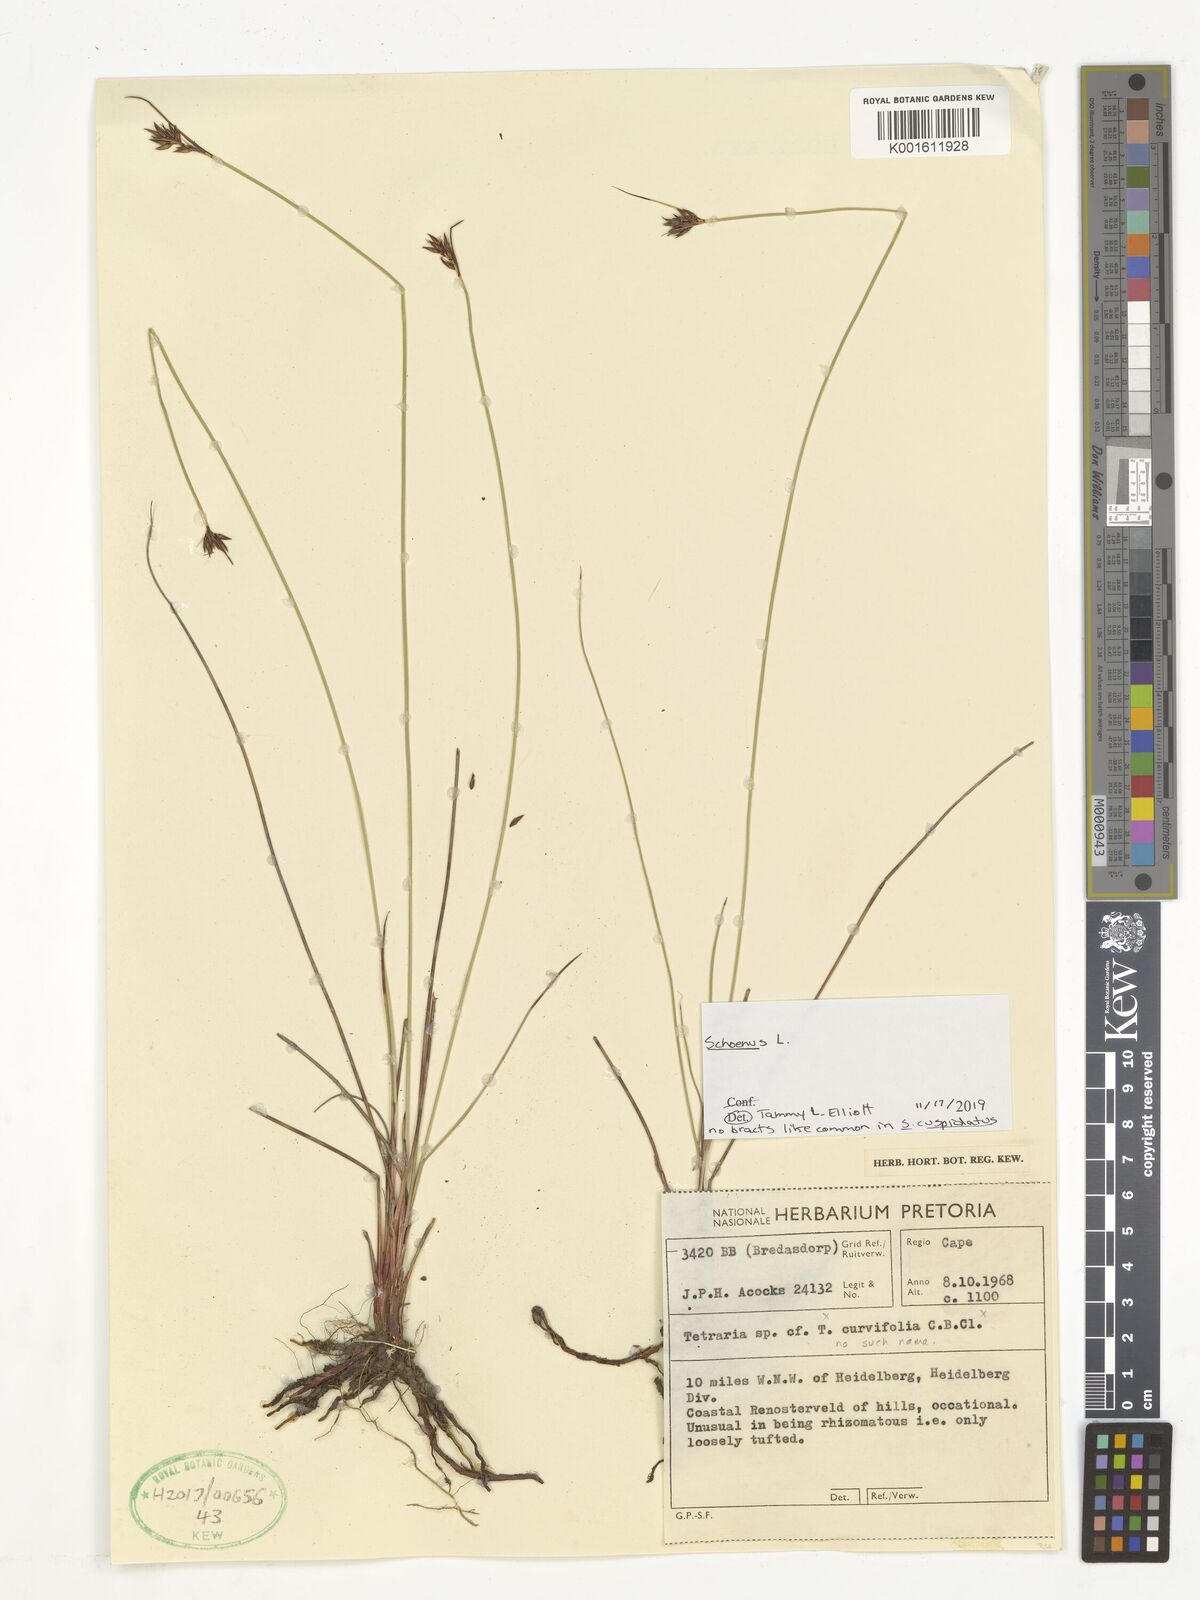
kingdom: Plantae
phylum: Tracheophyta
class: Liliopsida
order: Poales
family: Cyperaceae
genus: Schoenus
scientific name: Schoenus
